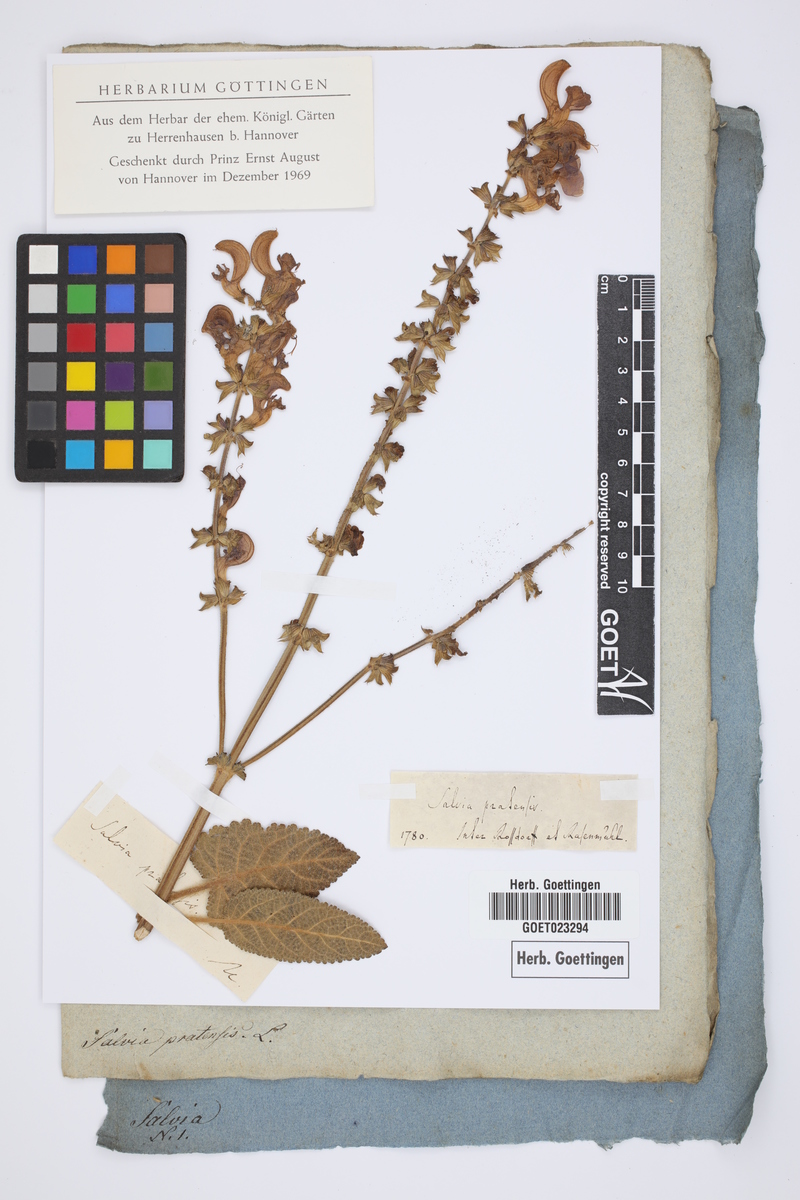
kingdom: Plantae
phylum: Tracheophyta
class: Magnoliopsida
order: Lamiales
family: Lamiaceae
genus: Salvia
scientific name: Salvia pratensis
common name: Meadow sage
